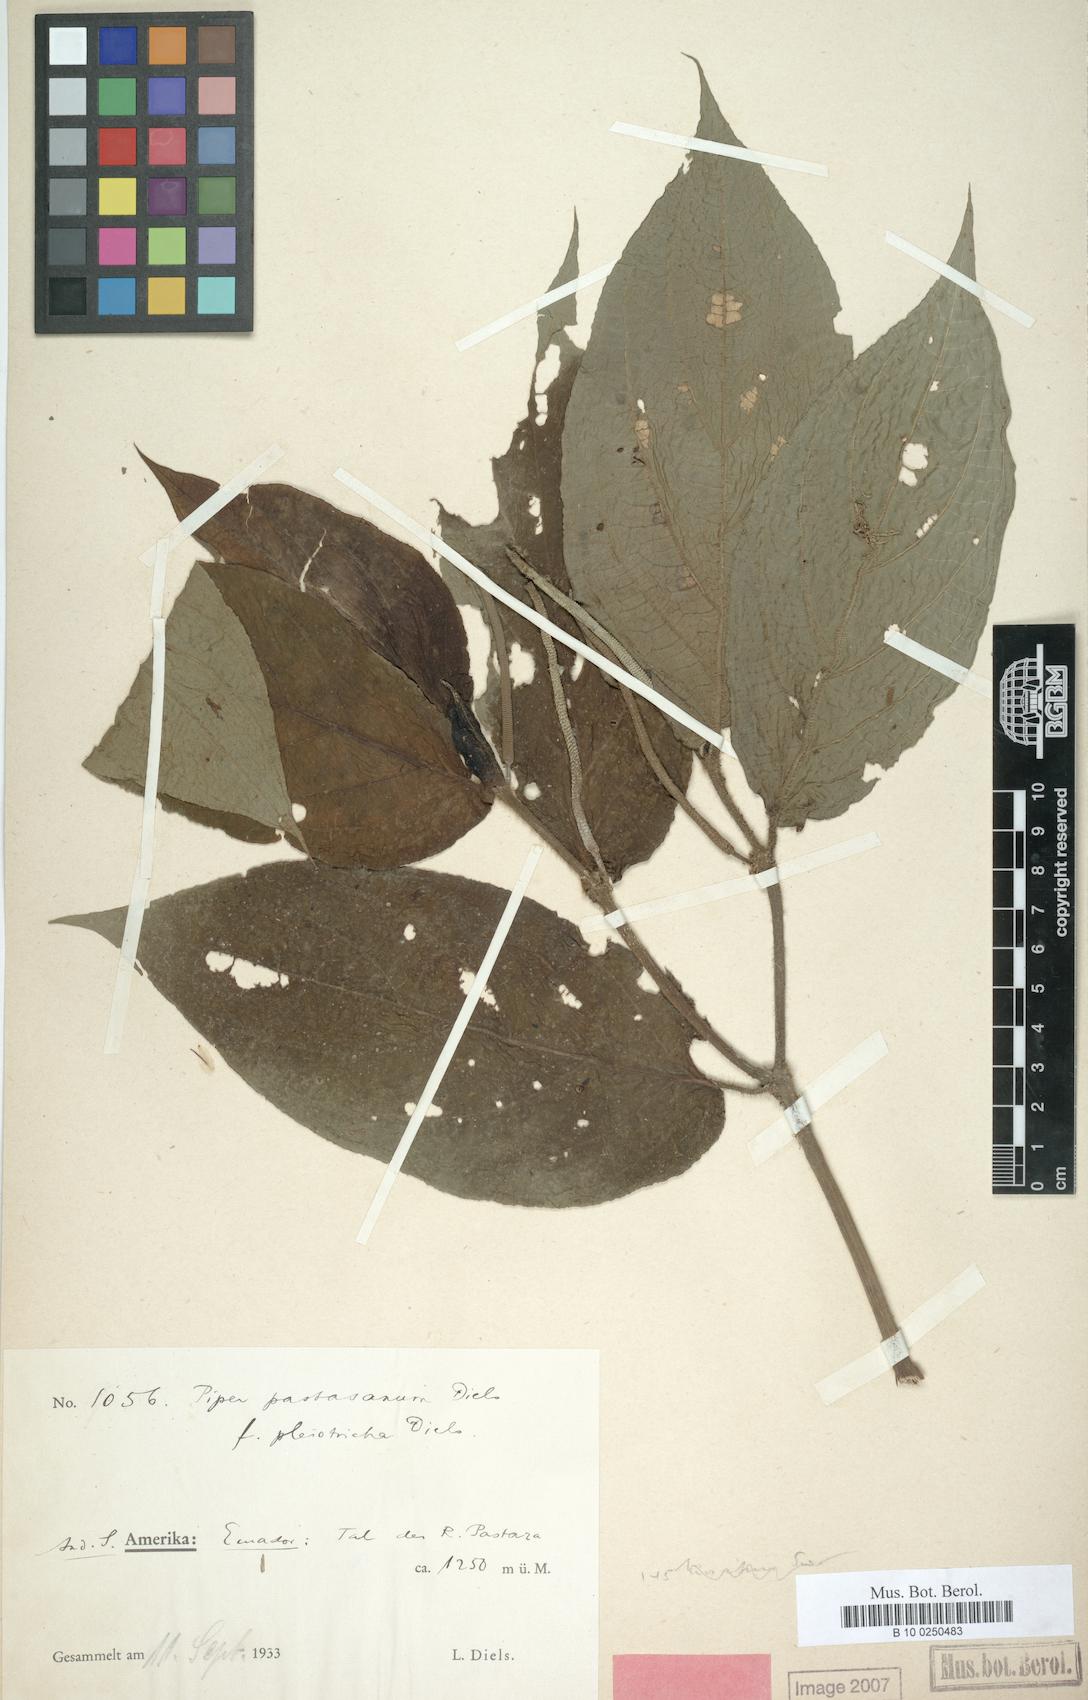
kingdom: Plantae
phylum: Tracheophyta
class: Magnoliopsida
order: Piperales
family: Piperaceae
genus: Piper
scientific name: Piper pastasanum
